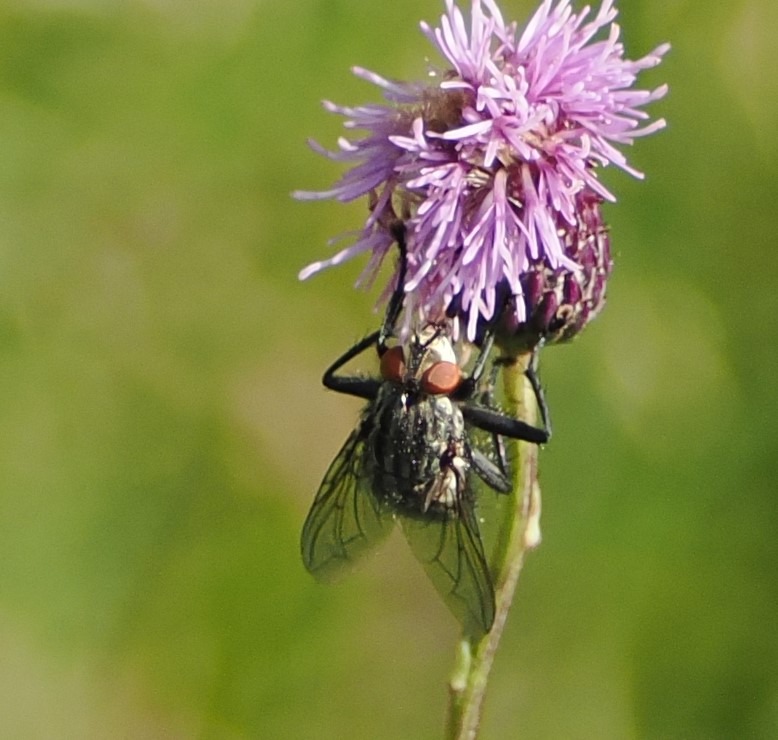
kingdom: Animalia
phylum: Arthropoda
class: Insecta
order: Diptera
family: Sarcophagidae
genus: Sarcophaga
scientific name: Sarcophaga
